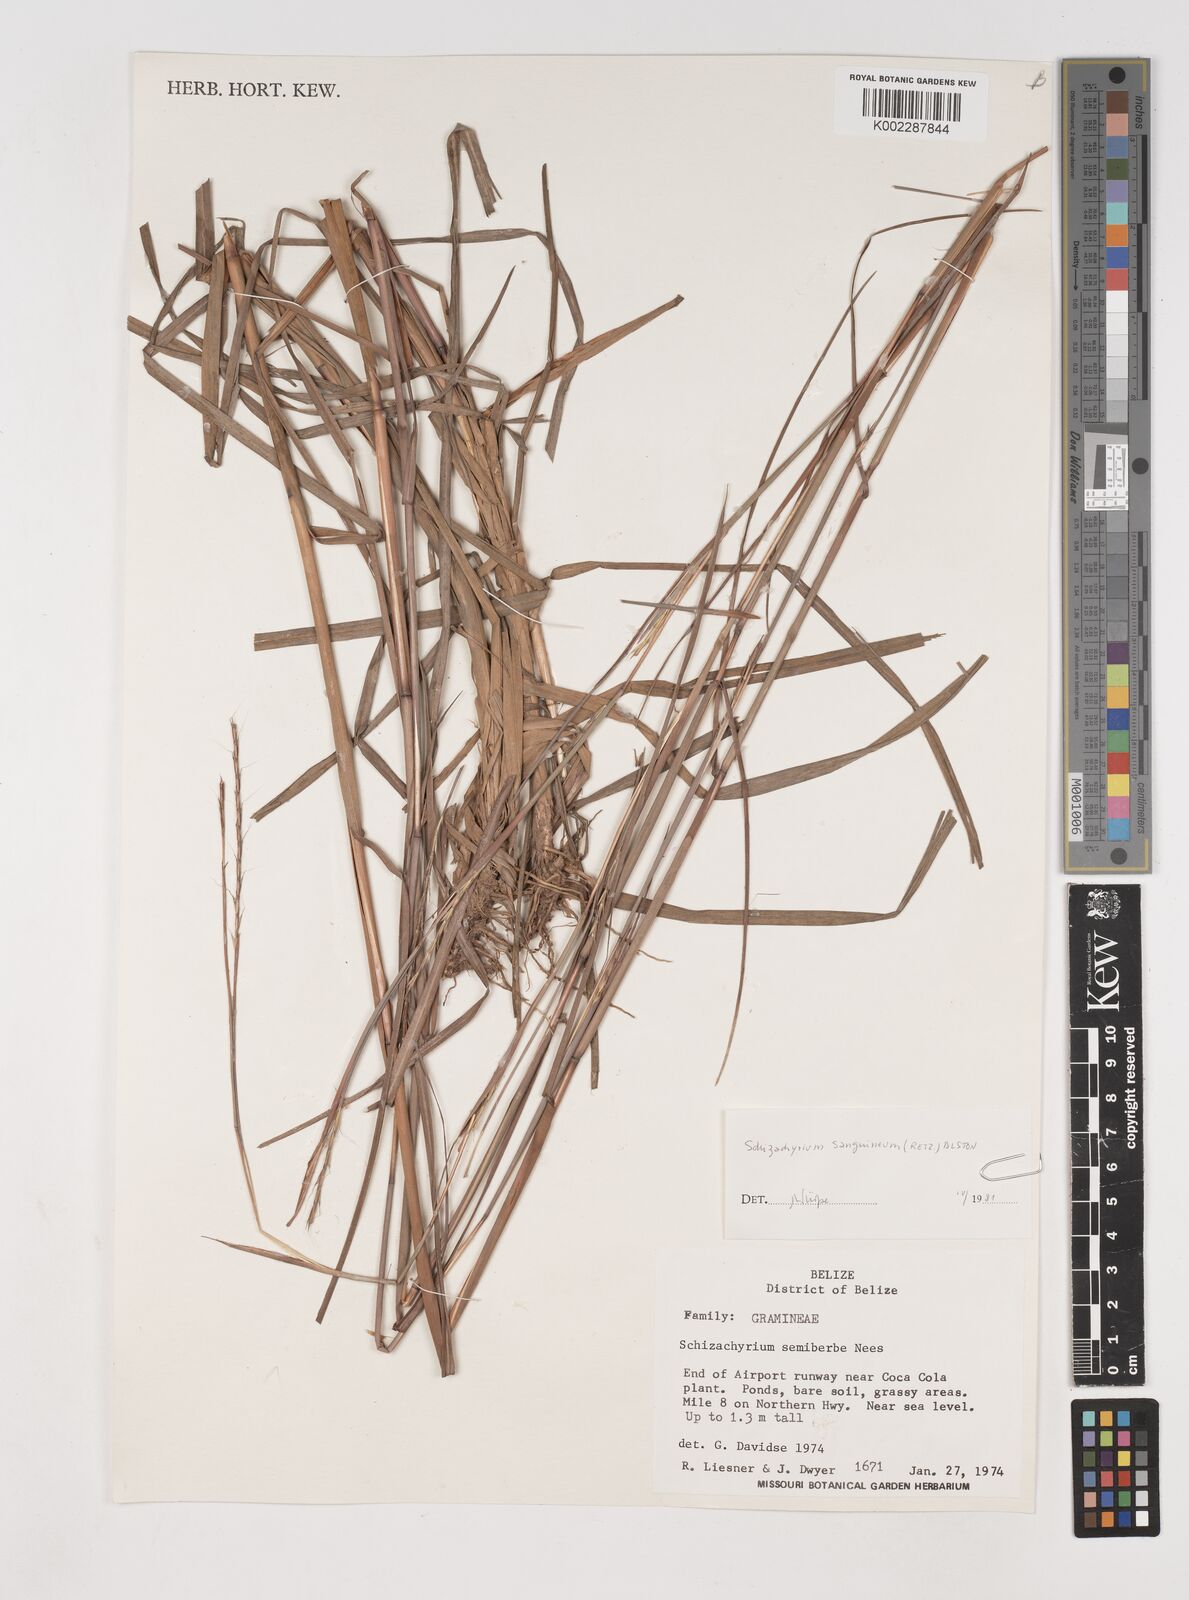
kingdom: Plantae
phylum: Tracheophyta
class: Liliopsida
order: Poales
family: Poaceae
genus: Schizachyrium
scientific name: Schizachyrium sanguineum
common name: Crimson bluestem
